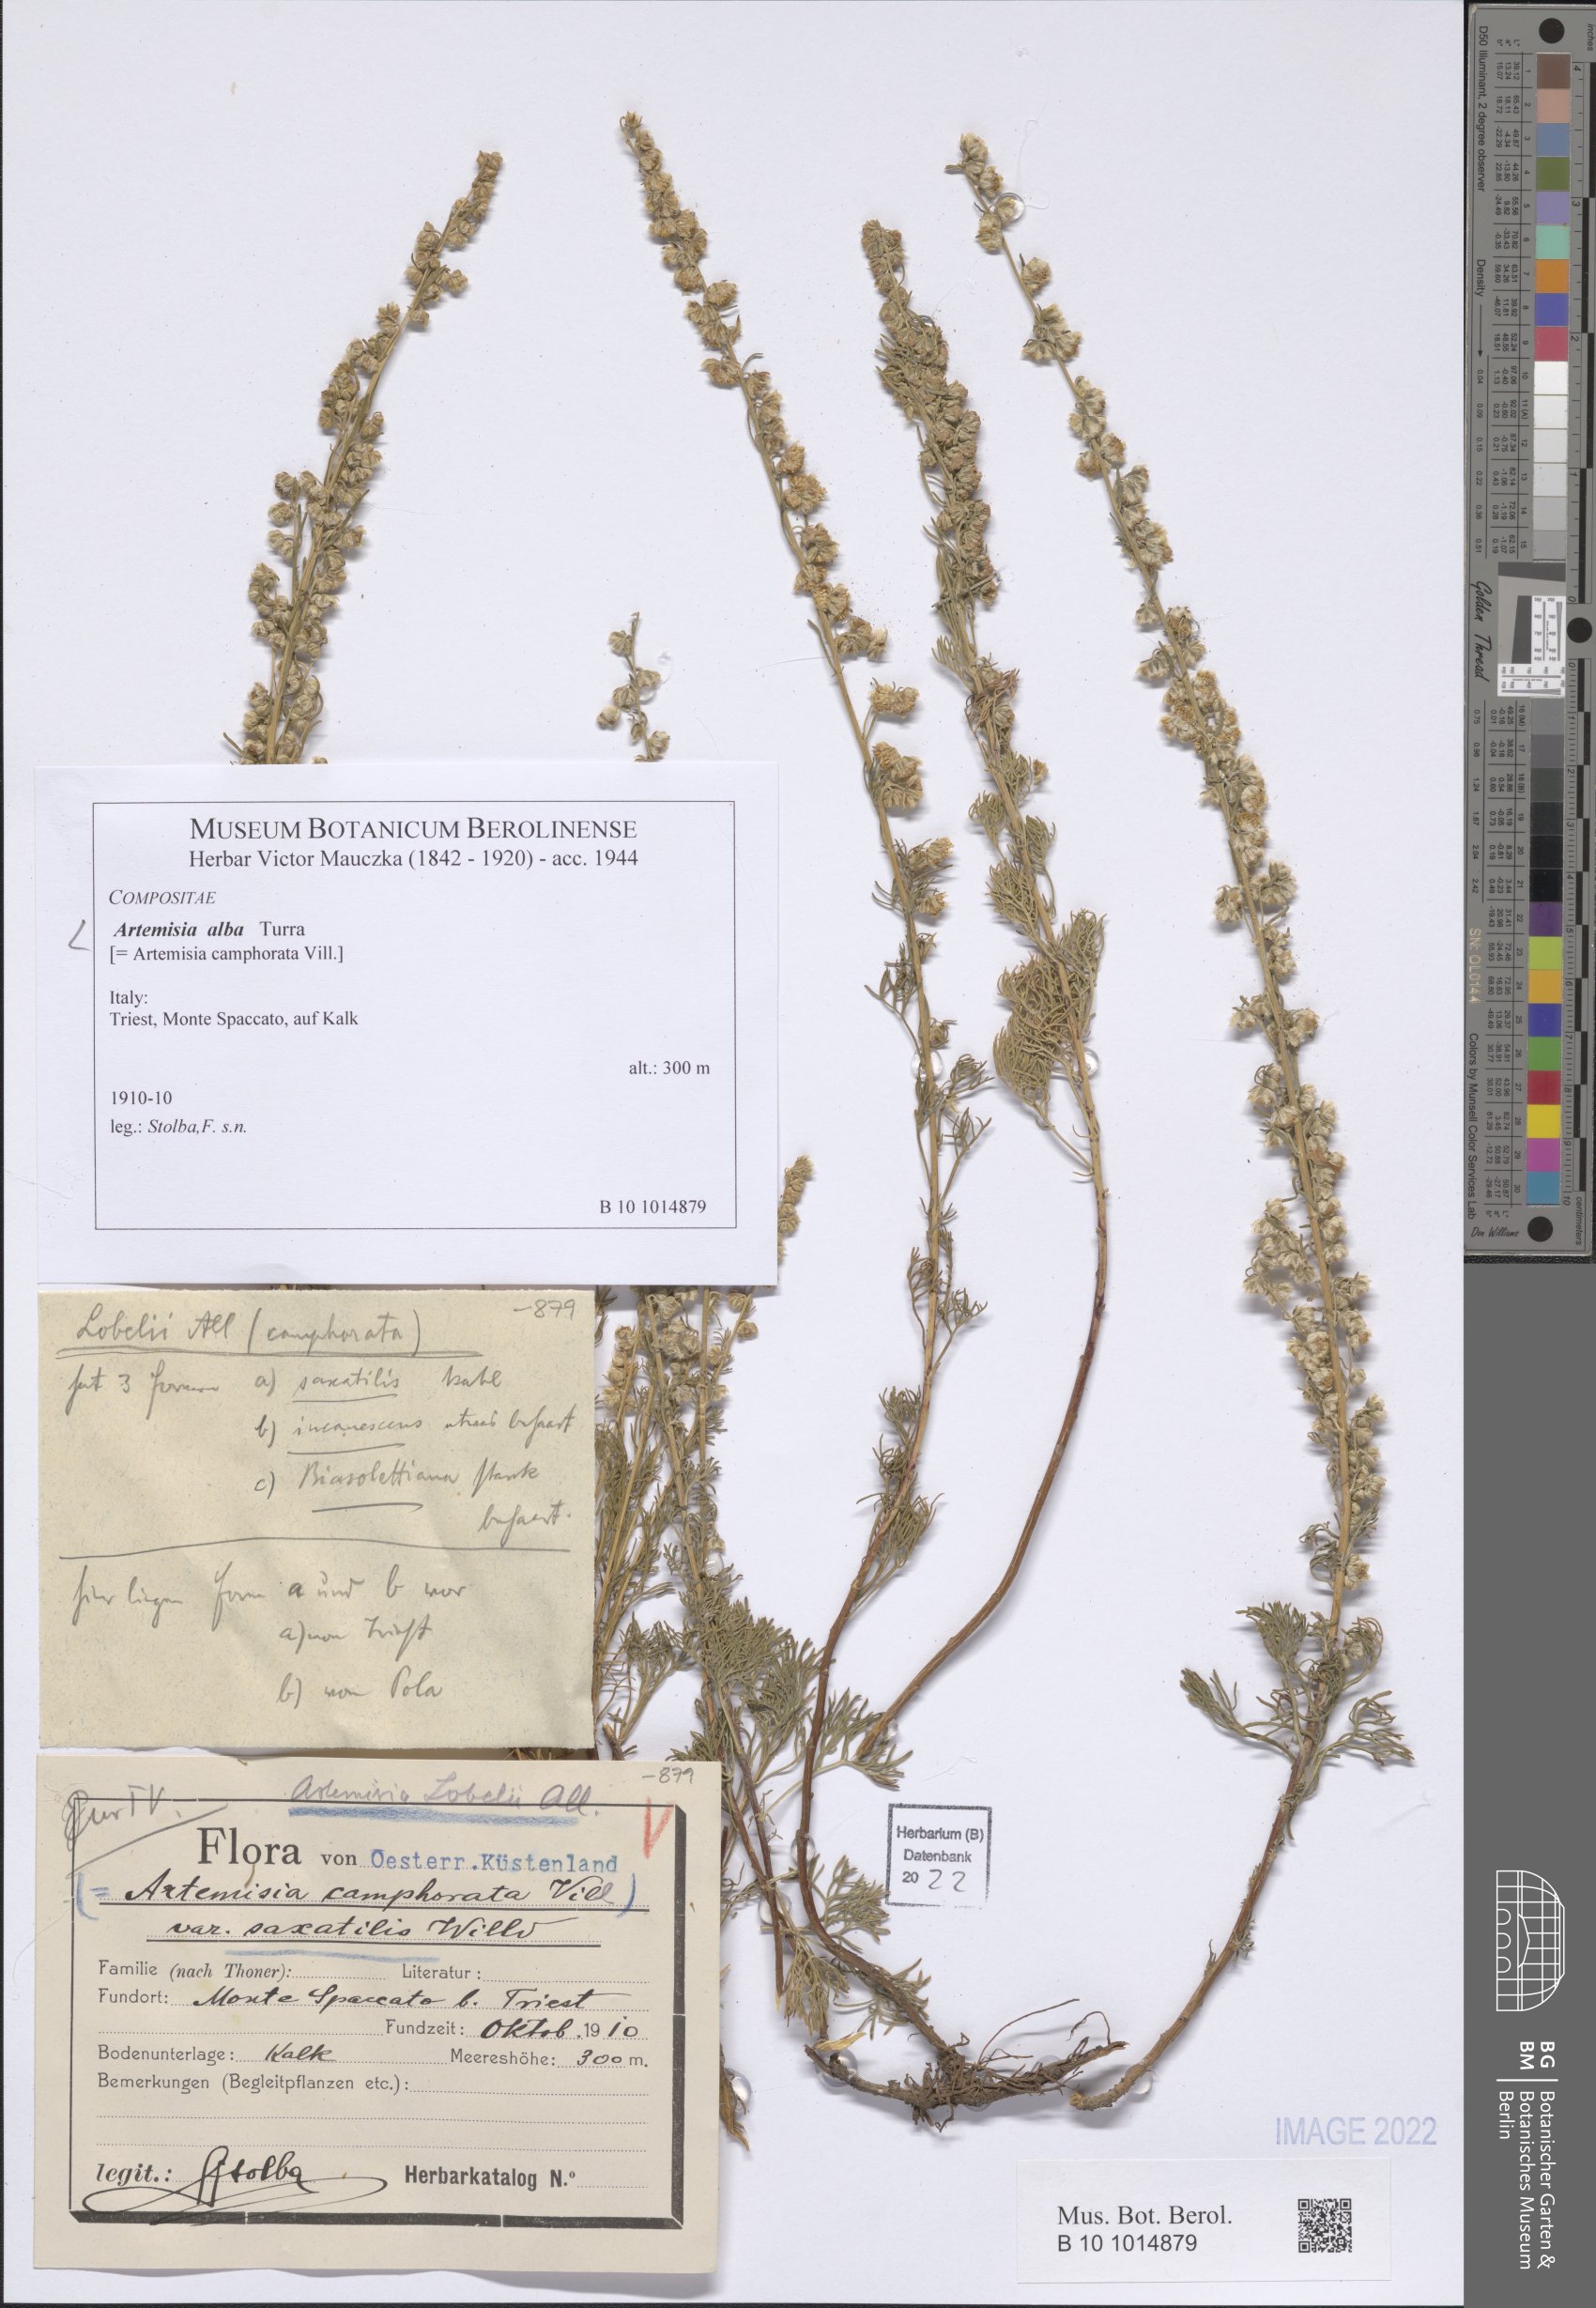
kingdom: Plantae
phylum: Tracheophyta
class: Magnoliopsida
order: Asterales
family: Asteraceae
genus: Artemisia
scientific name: Artemisia alba
